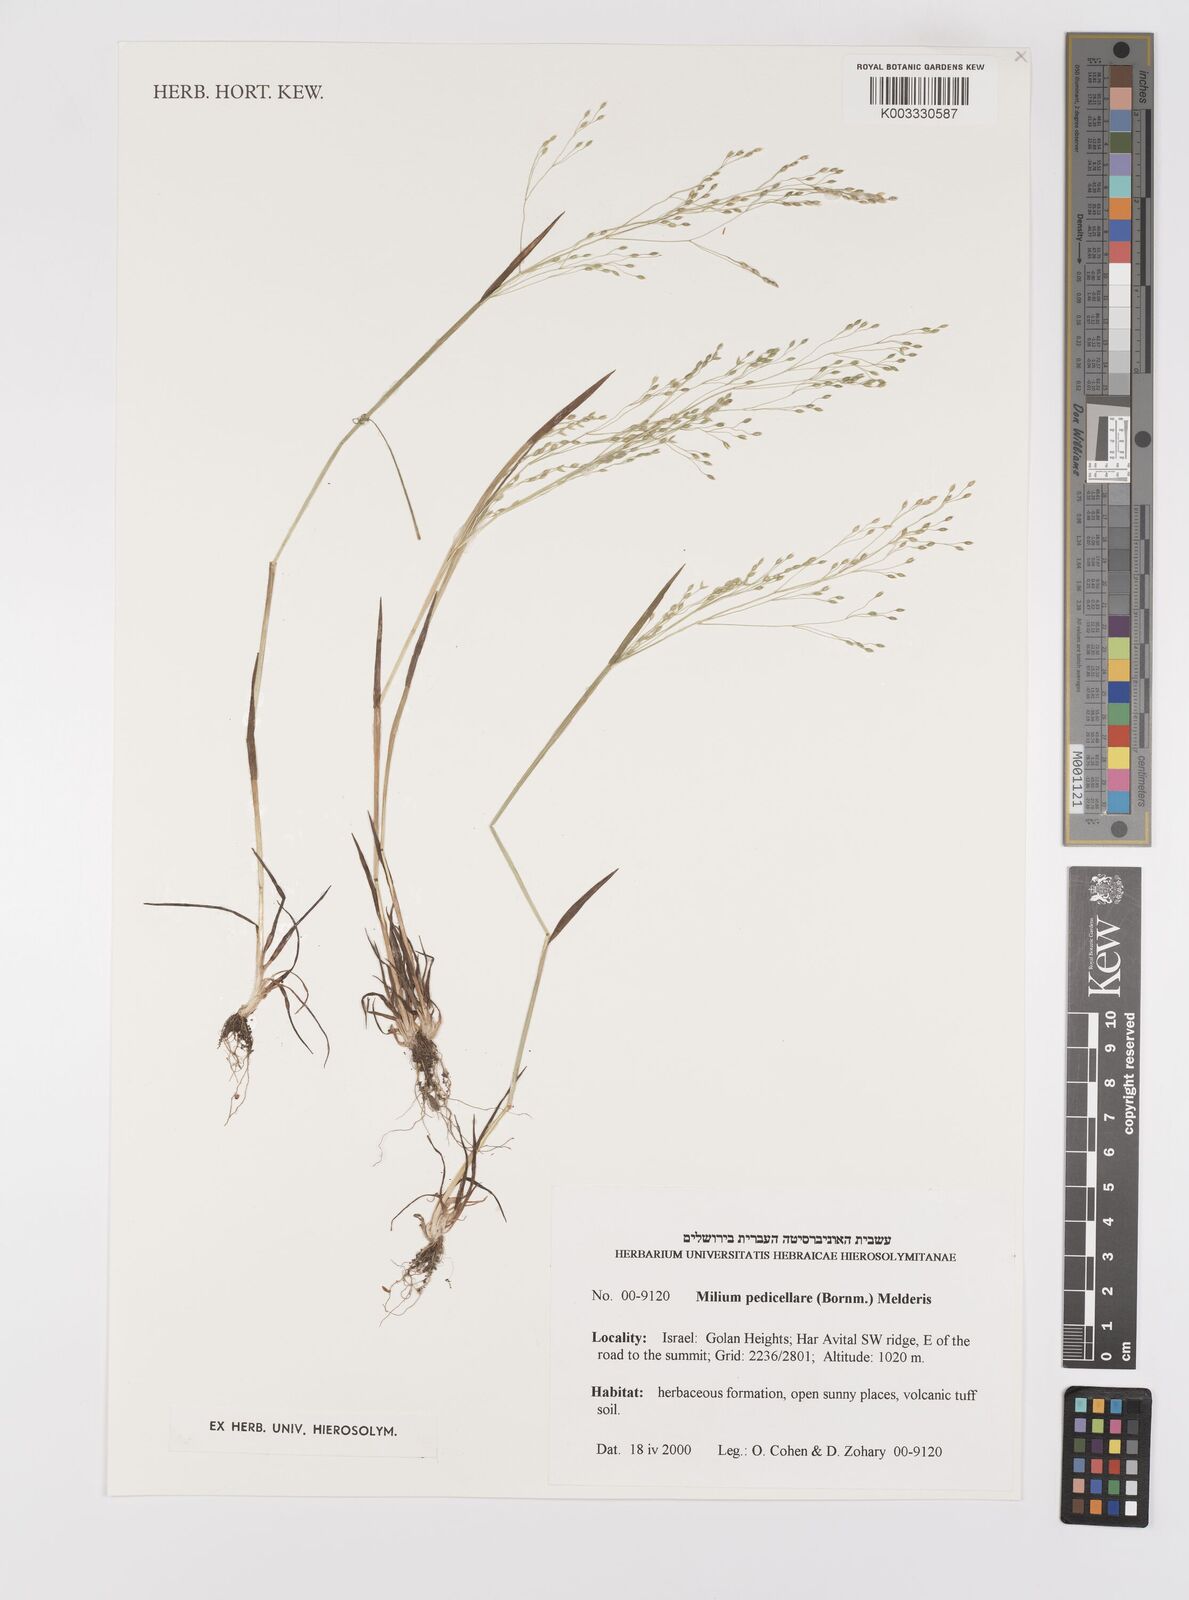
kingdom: Plantae
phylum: Tracheophyta
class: Liliopsida
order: Poales
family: Poaceae
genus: Milium
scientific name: Milium pedicellare
